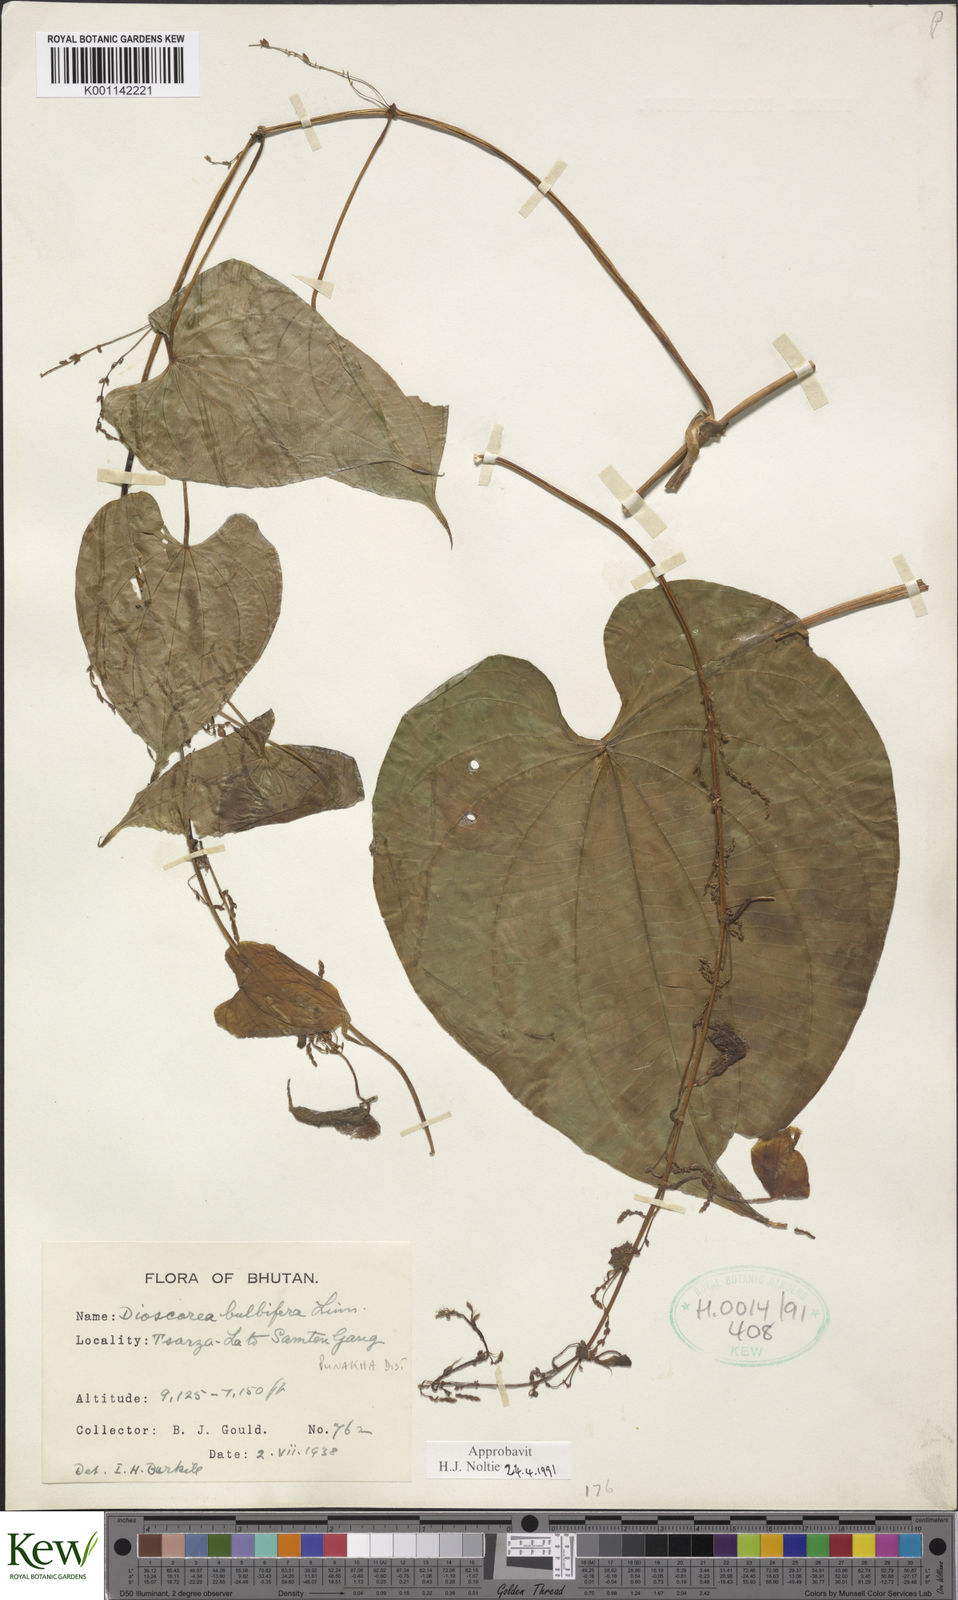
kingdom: Plantae
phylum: Tracheophyta
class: Liliopsida
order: Dioscoreales
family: Dioscoreaceae
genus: Dioscorea
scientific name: Dioscorea bulbifera
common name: Air yam
